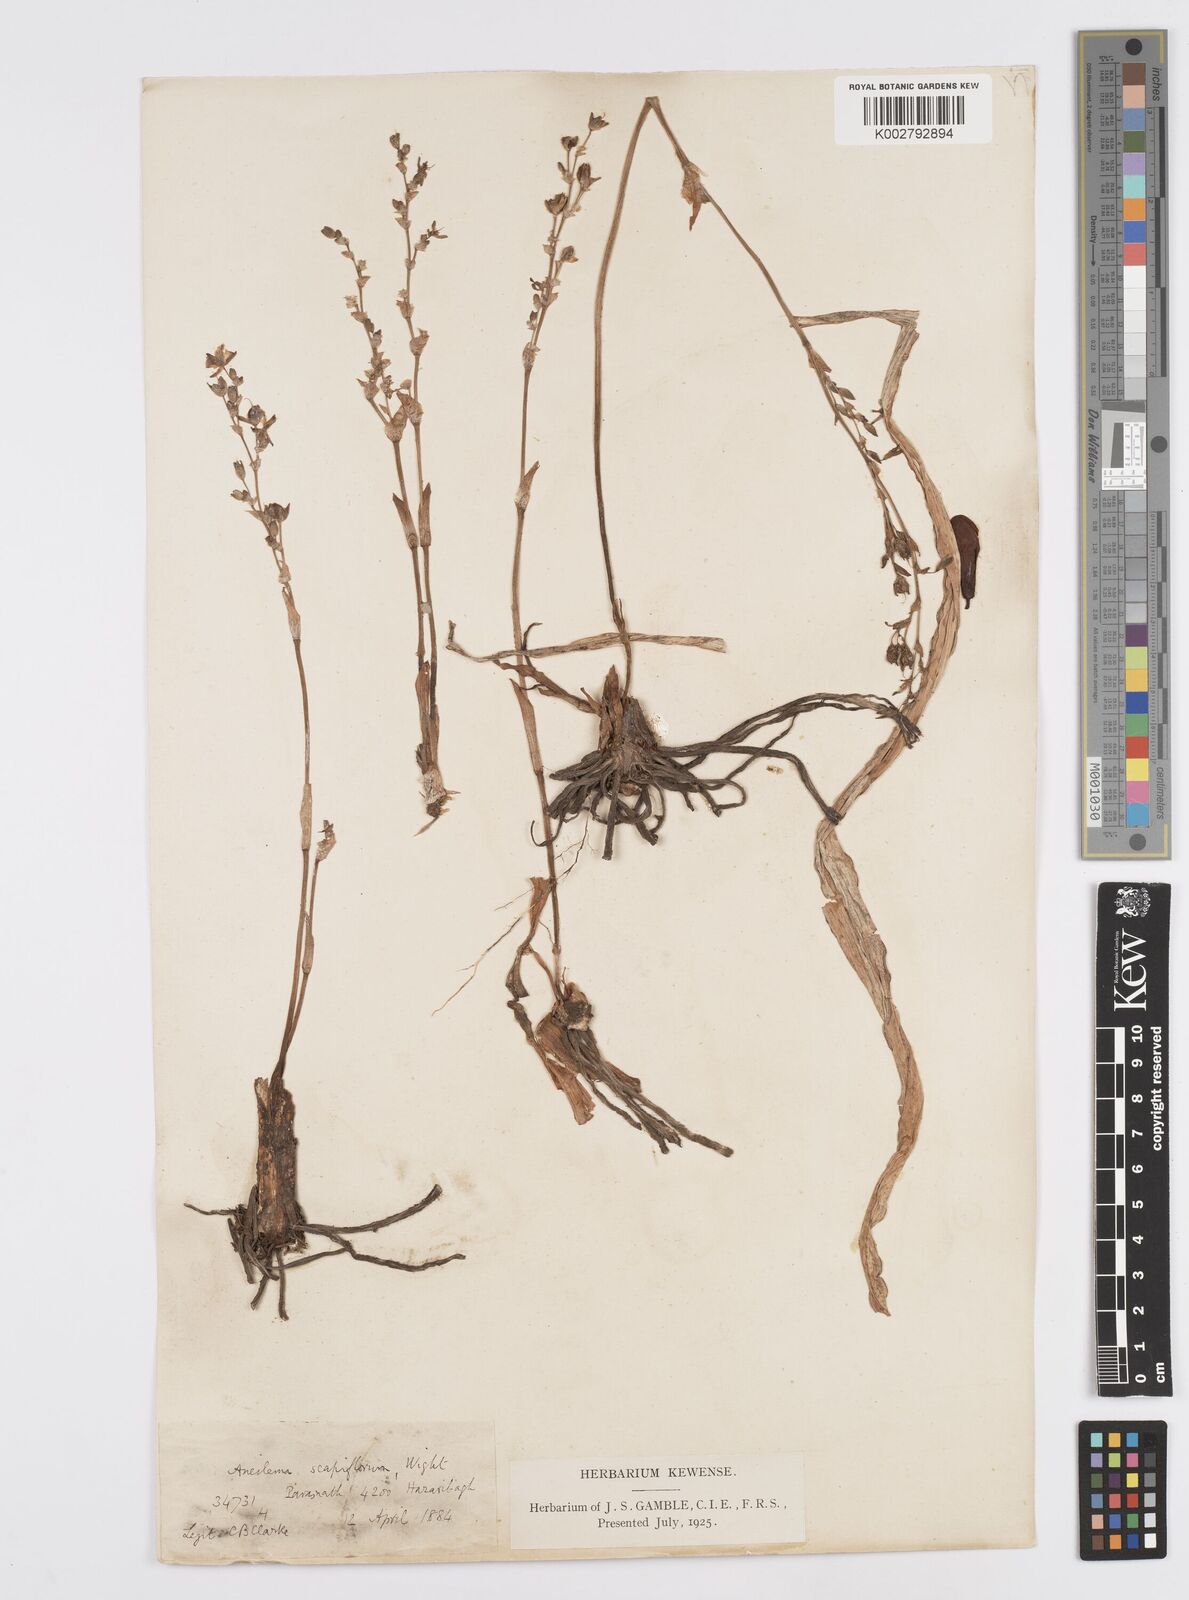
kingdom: Plantae
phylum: Tracheophyta
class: Liliopsida
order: Commelinales
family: Commelinaceae
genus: Murdannia
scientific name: Murdannia
